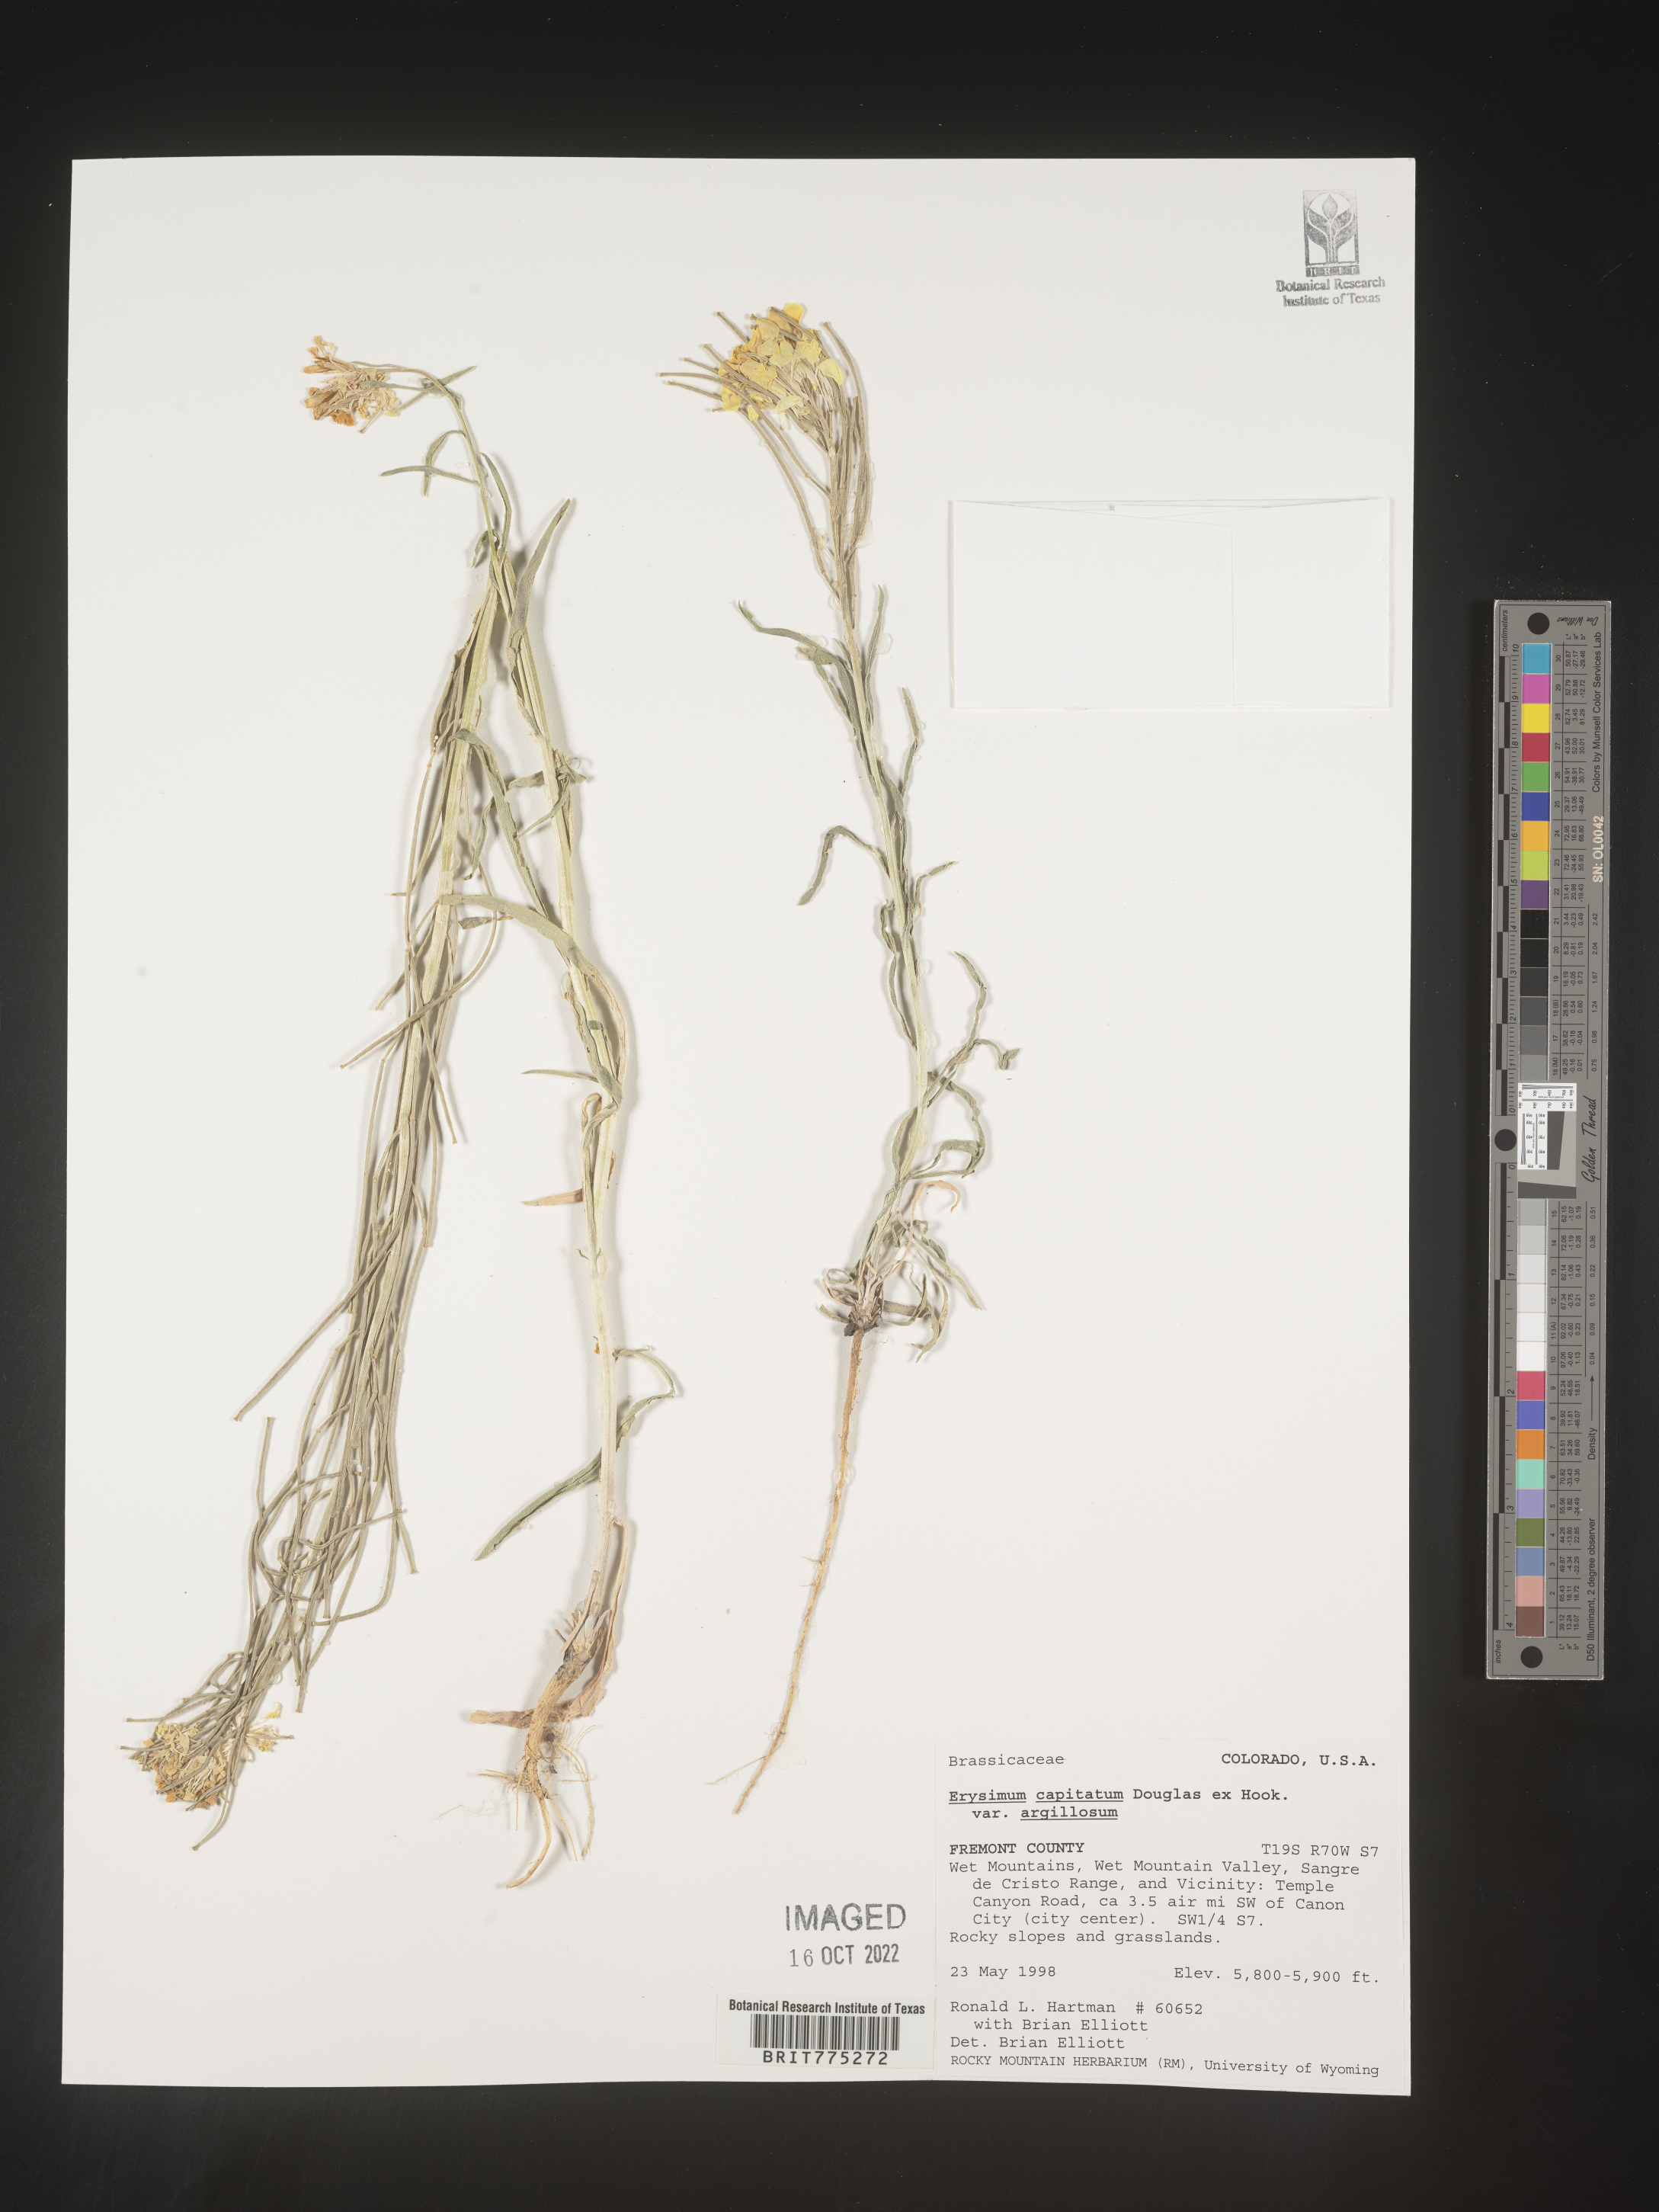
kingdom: Plantae
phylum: Tracheophyta
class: Magnoliopsida
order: Brassicales
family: Brassicaceae
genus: Erysimum
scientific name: Erysimum capitatum
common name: Western wallflower
